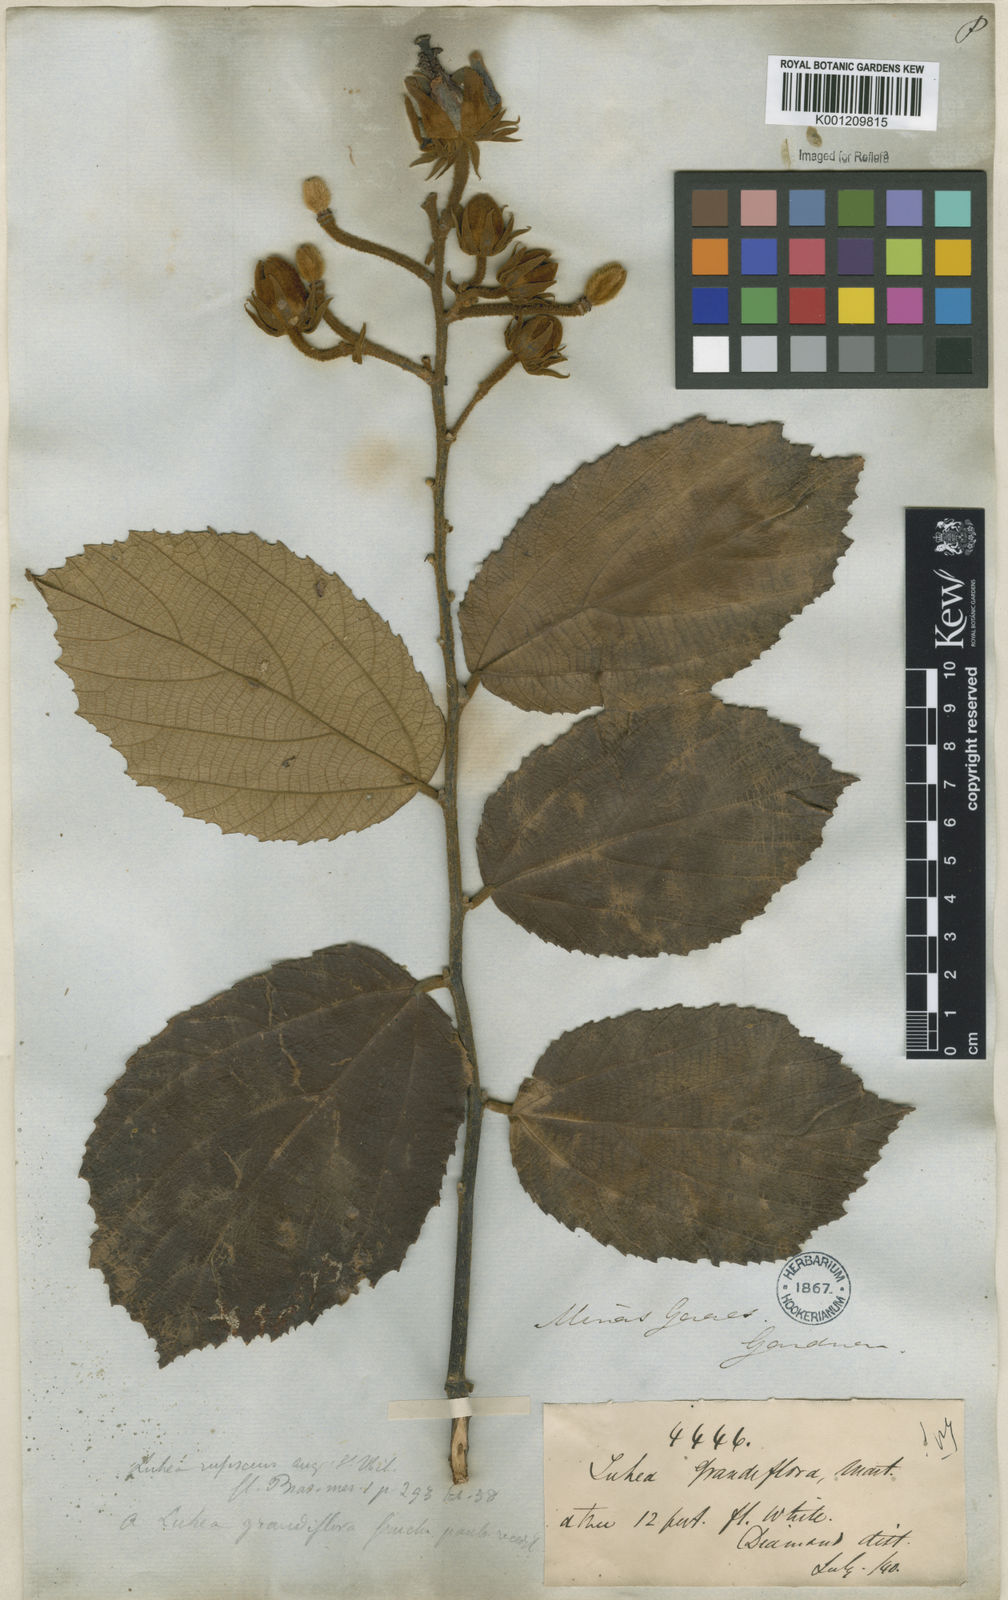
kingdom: Plantae
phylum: Tracheophyta
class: Magnoliopsida
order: Malvales
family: Malvaceae
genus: Luehea
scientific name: Luehea grandiflora
